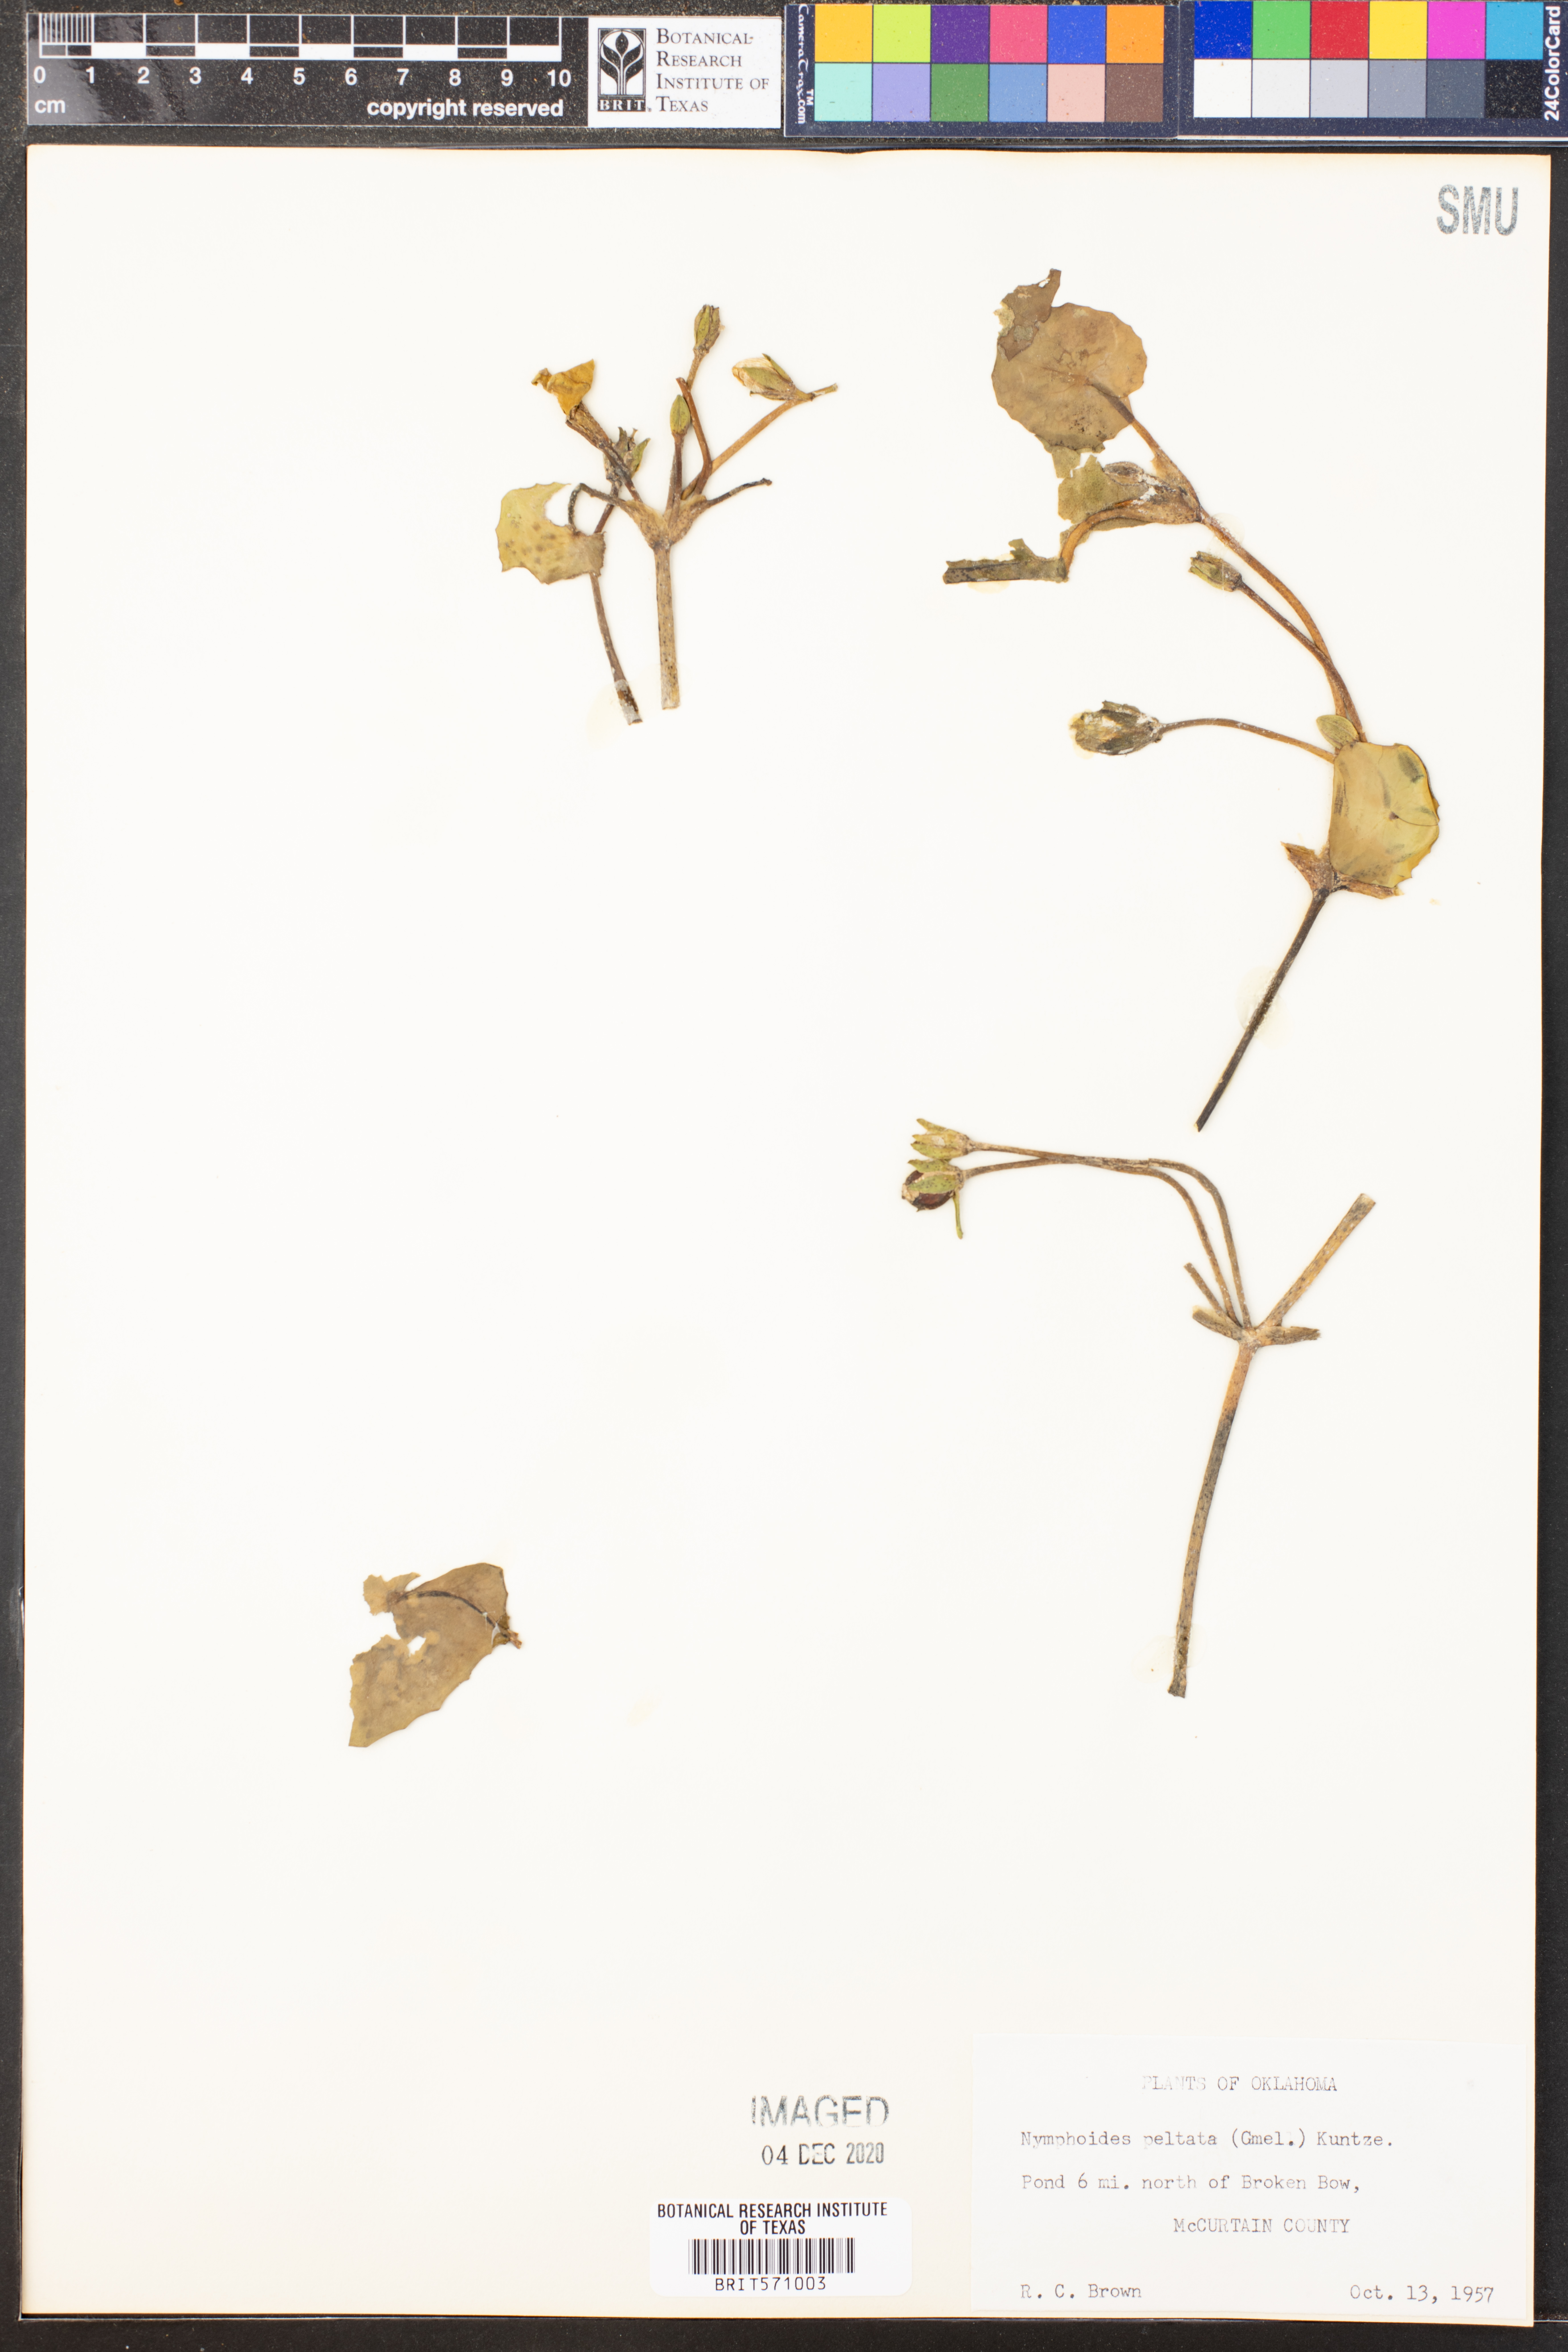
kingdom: Plantae
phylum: Tracheophyta
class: Magnoliopsida
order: Asterales
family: Menyanthaceae
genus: Nymphoides
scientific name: Nymphoides peltata
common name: Fringed water-lily
